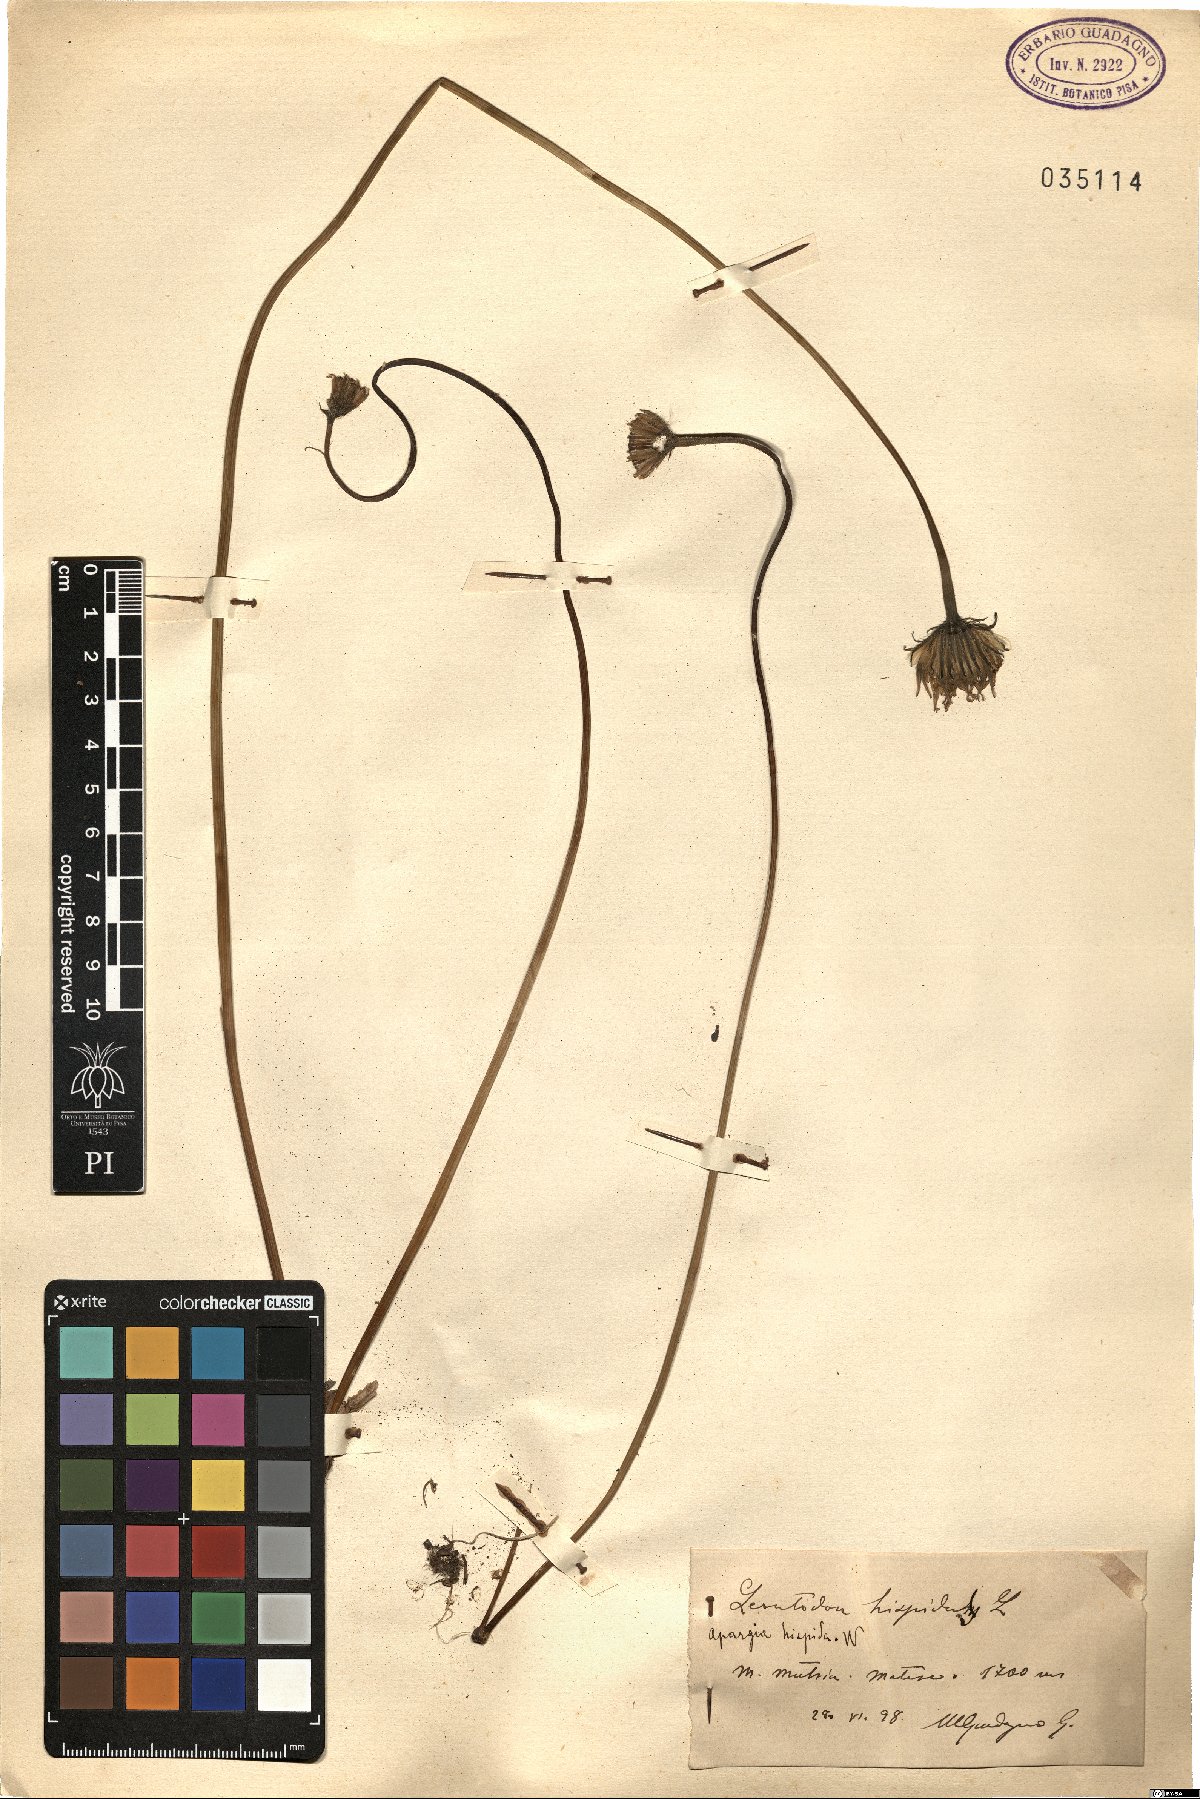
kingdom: Plantae
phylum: Tracheophyta
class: Magnoliopsida
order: Asterales
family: Asteraceae
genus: Leontodon
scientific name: Leontodon hispidus
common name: Rough hawkbit
